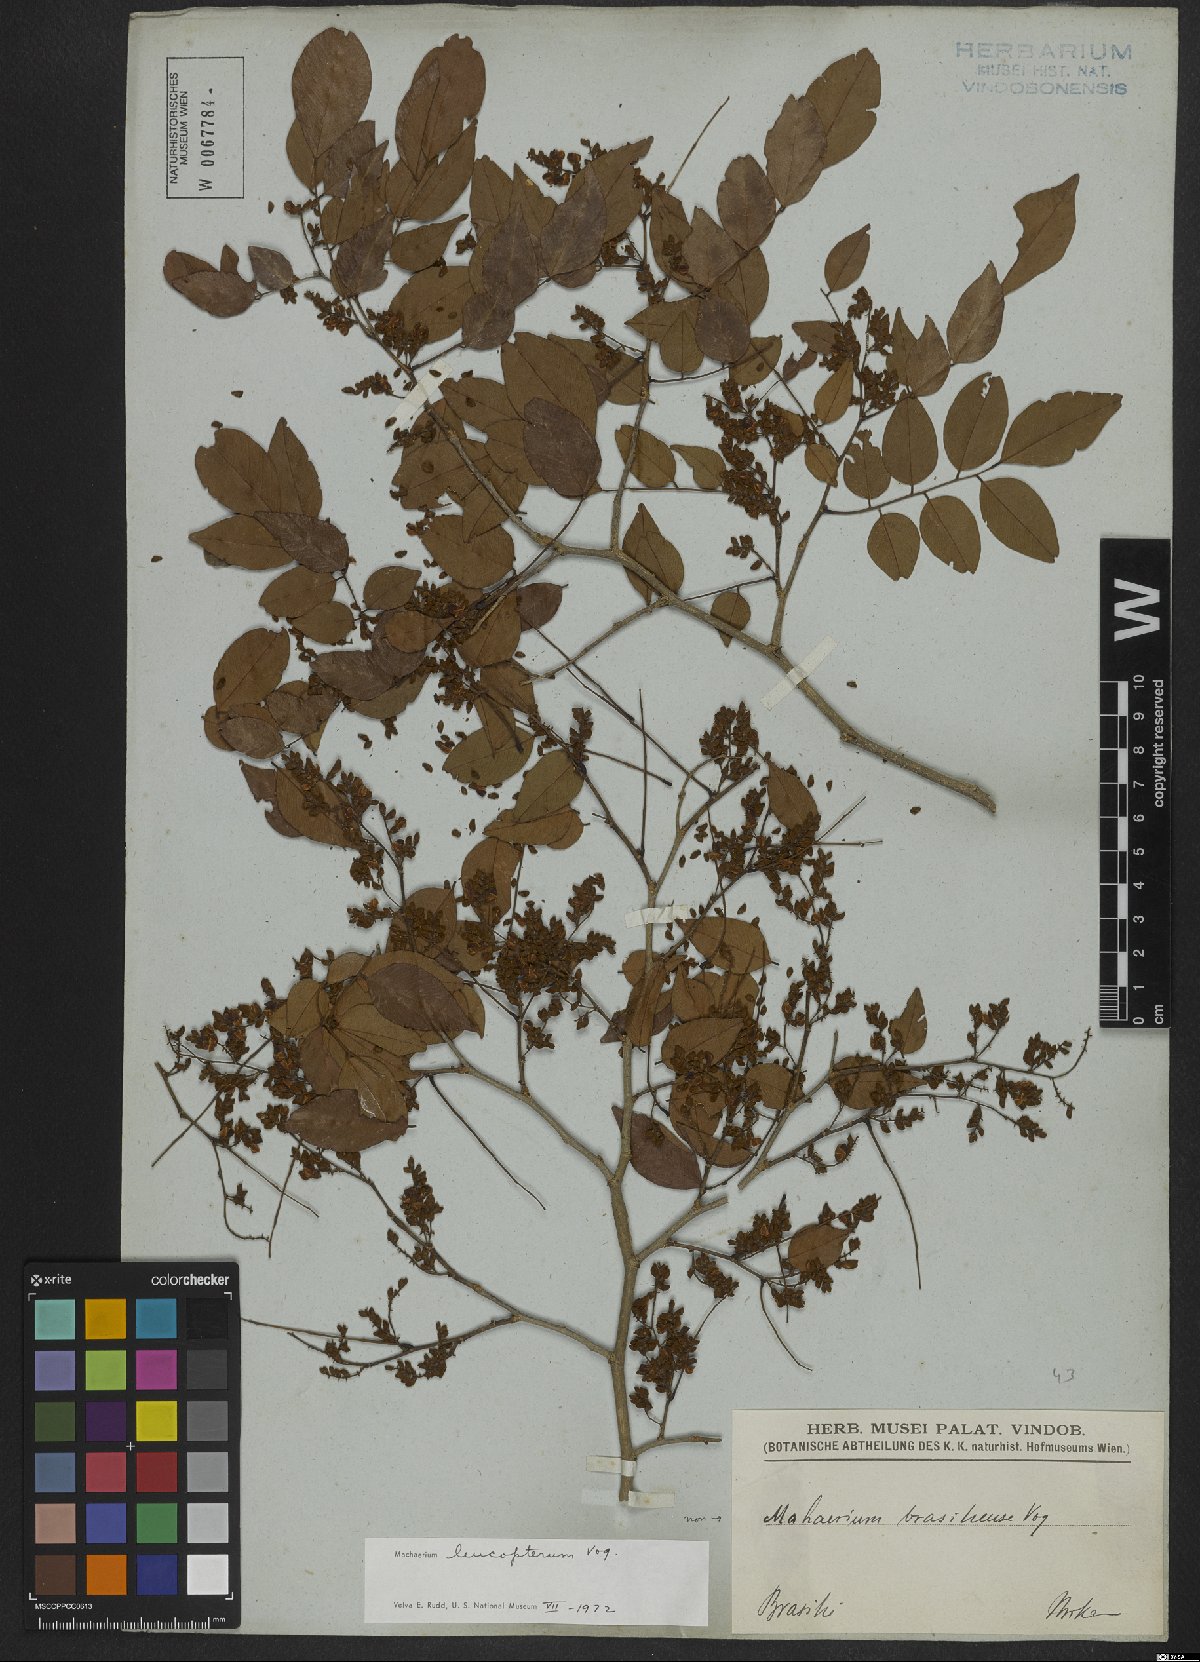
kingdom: Plantae
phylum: Tracheophyta
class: Magnoliopsida
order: Fabales
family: Fabaceae
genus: Machaerium
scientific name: Machaerium leucopterum
